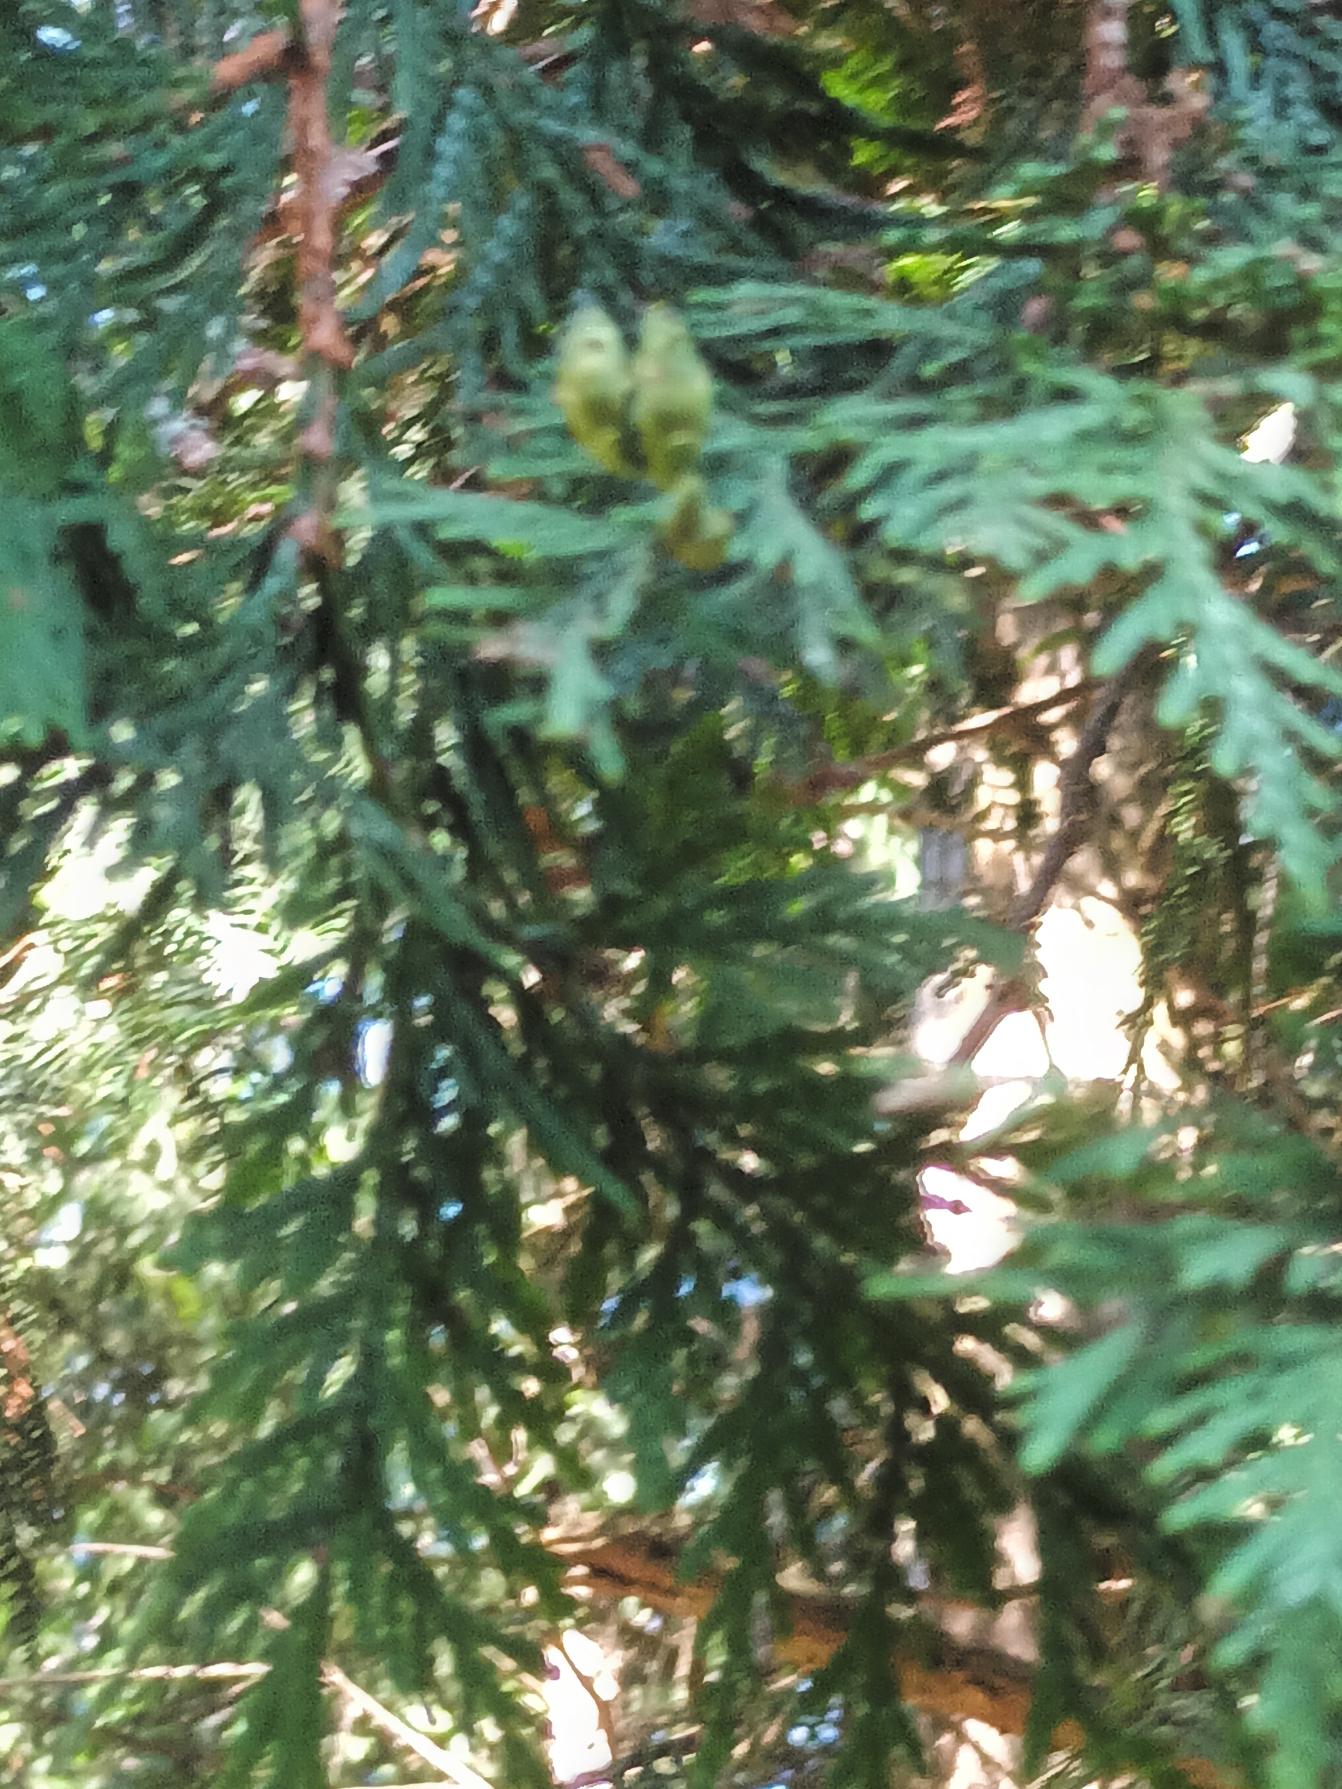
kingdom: Plantae
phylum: Tracheophyta
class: Pinopsida
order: Pinales
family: Cupressaceae
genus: Chamaecyparis
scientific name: Chamaecyparis lawsoniana
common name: Ædelcypres
